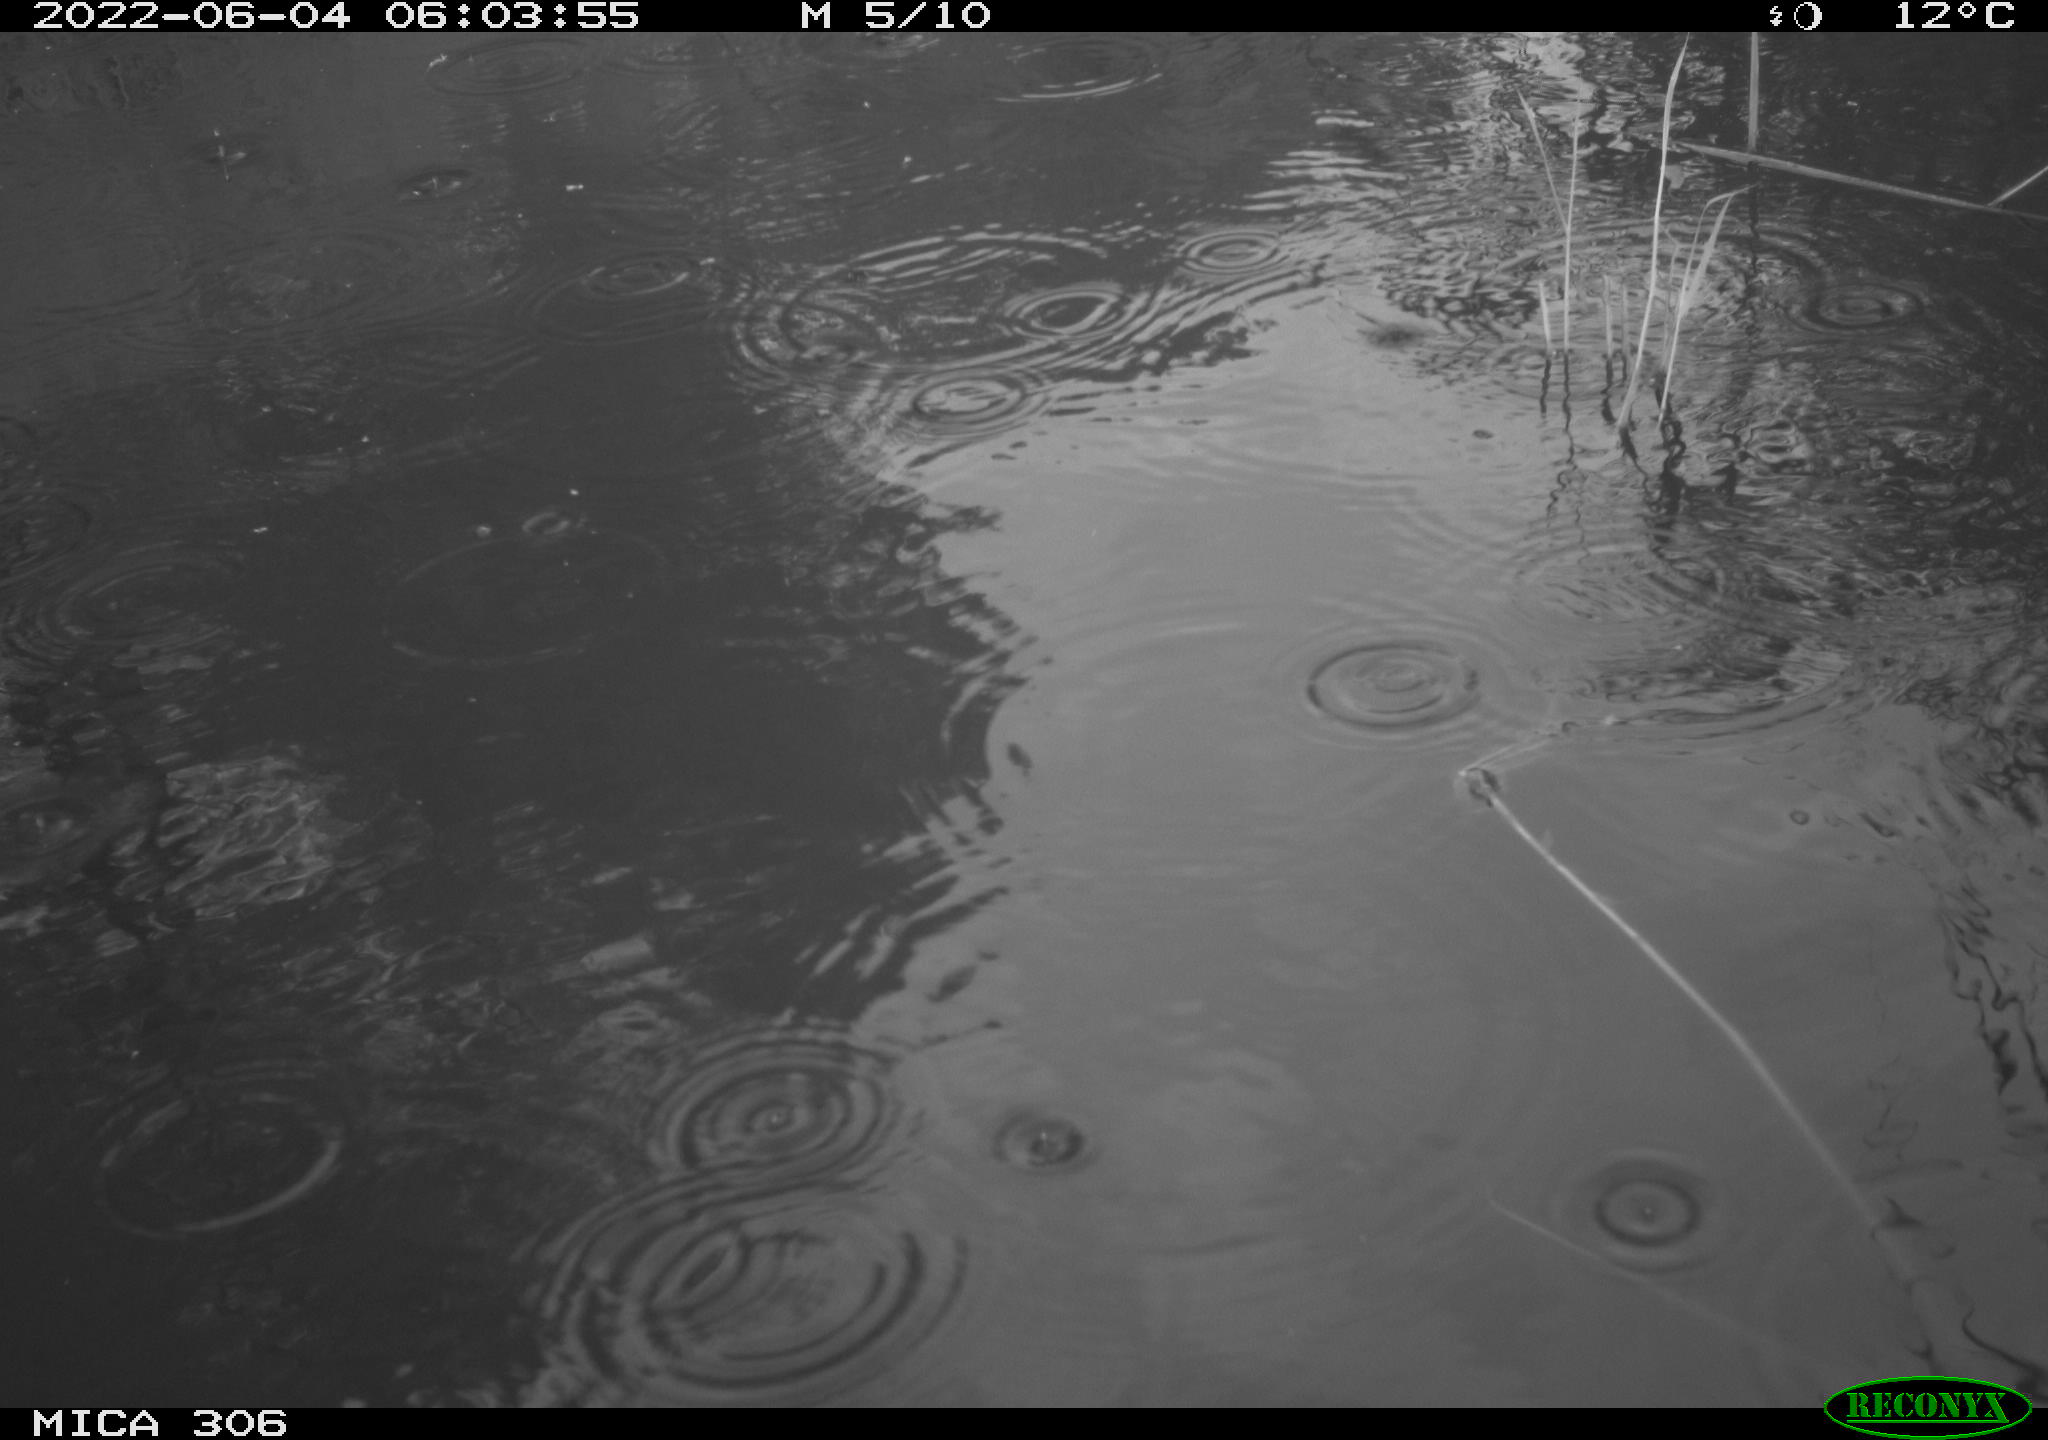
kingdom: Animalia
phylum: Chordata
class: Aves
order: Gruiformes
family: Rallidae
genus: Gallinula
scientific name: Gallinula chloropus
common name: Common moorhen
